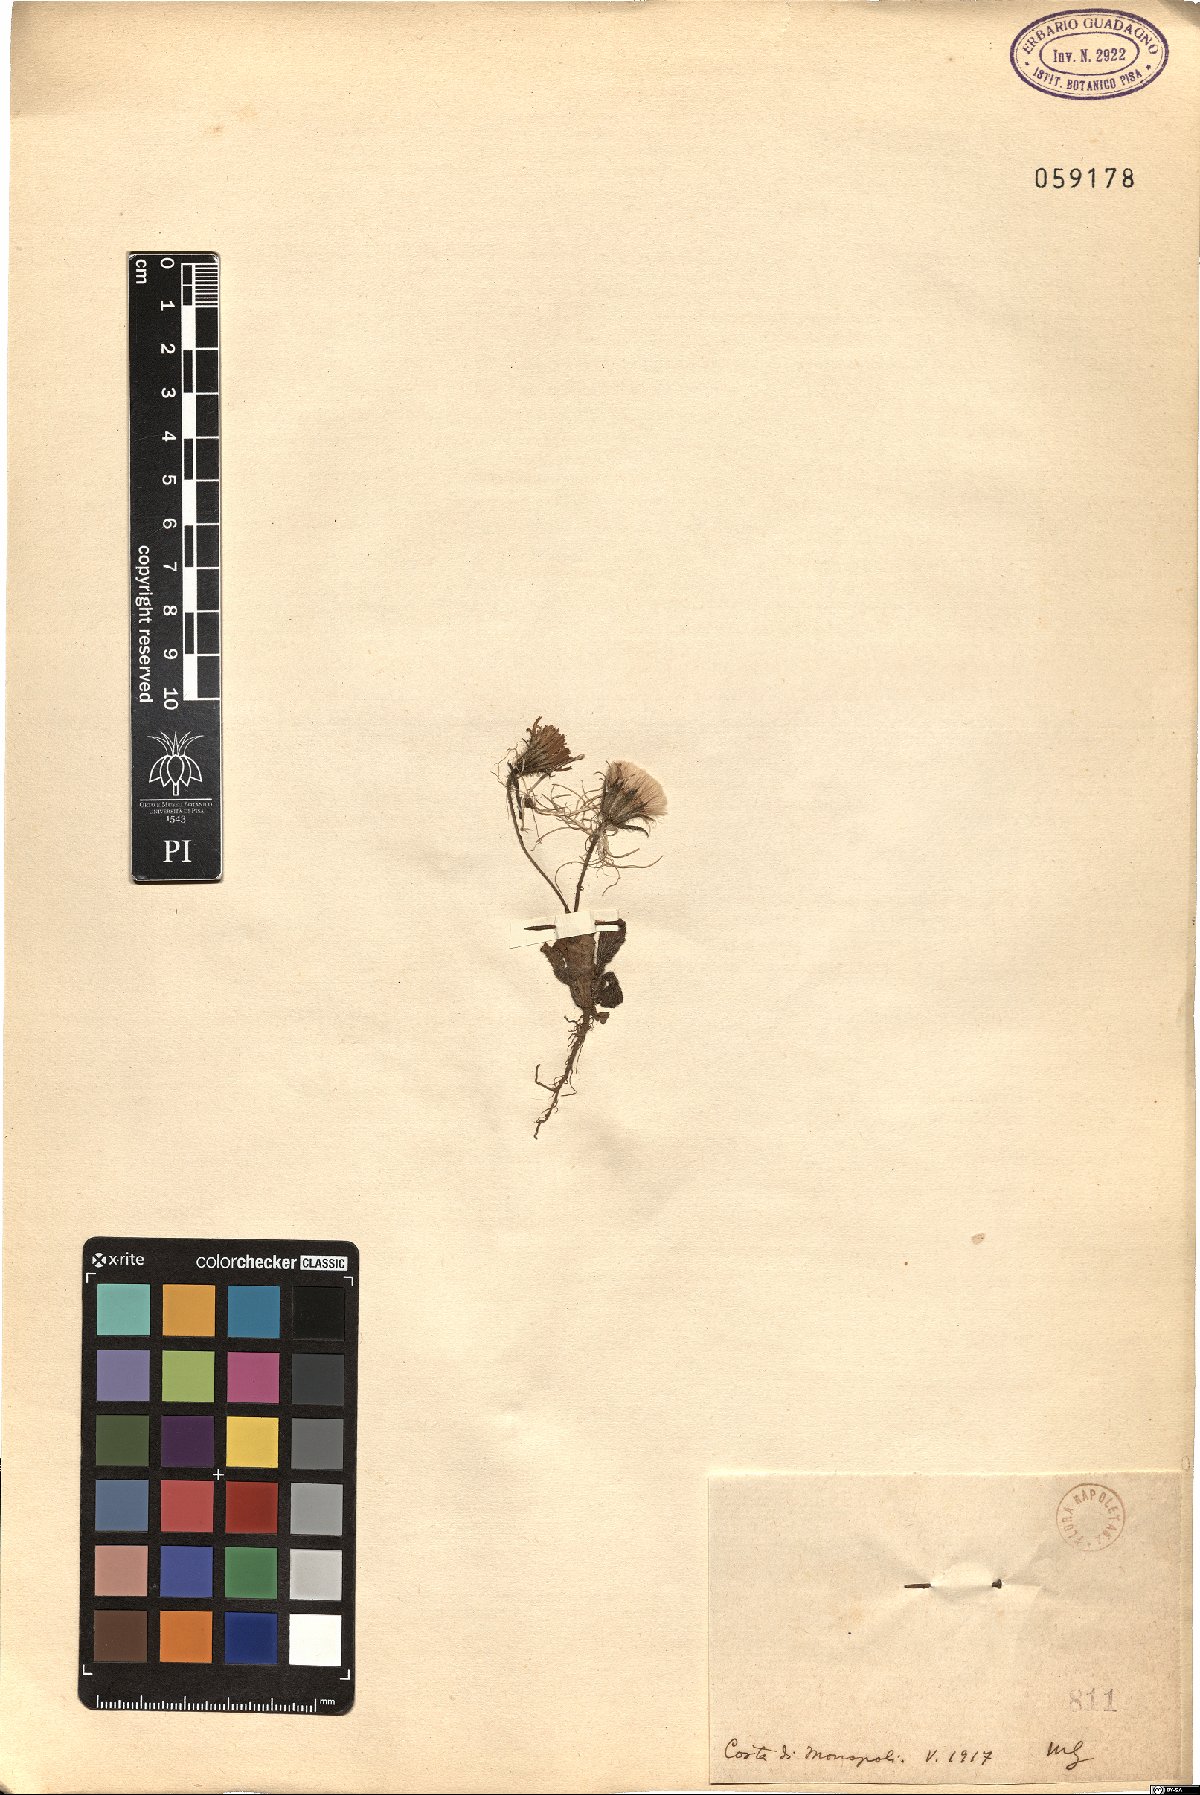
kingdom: Plantae
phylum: Tracheophyta
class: Magnoliopsida
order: Asterales
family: Asteraceae
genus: Achyrophorus
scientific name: Achyrophorus valdesii
